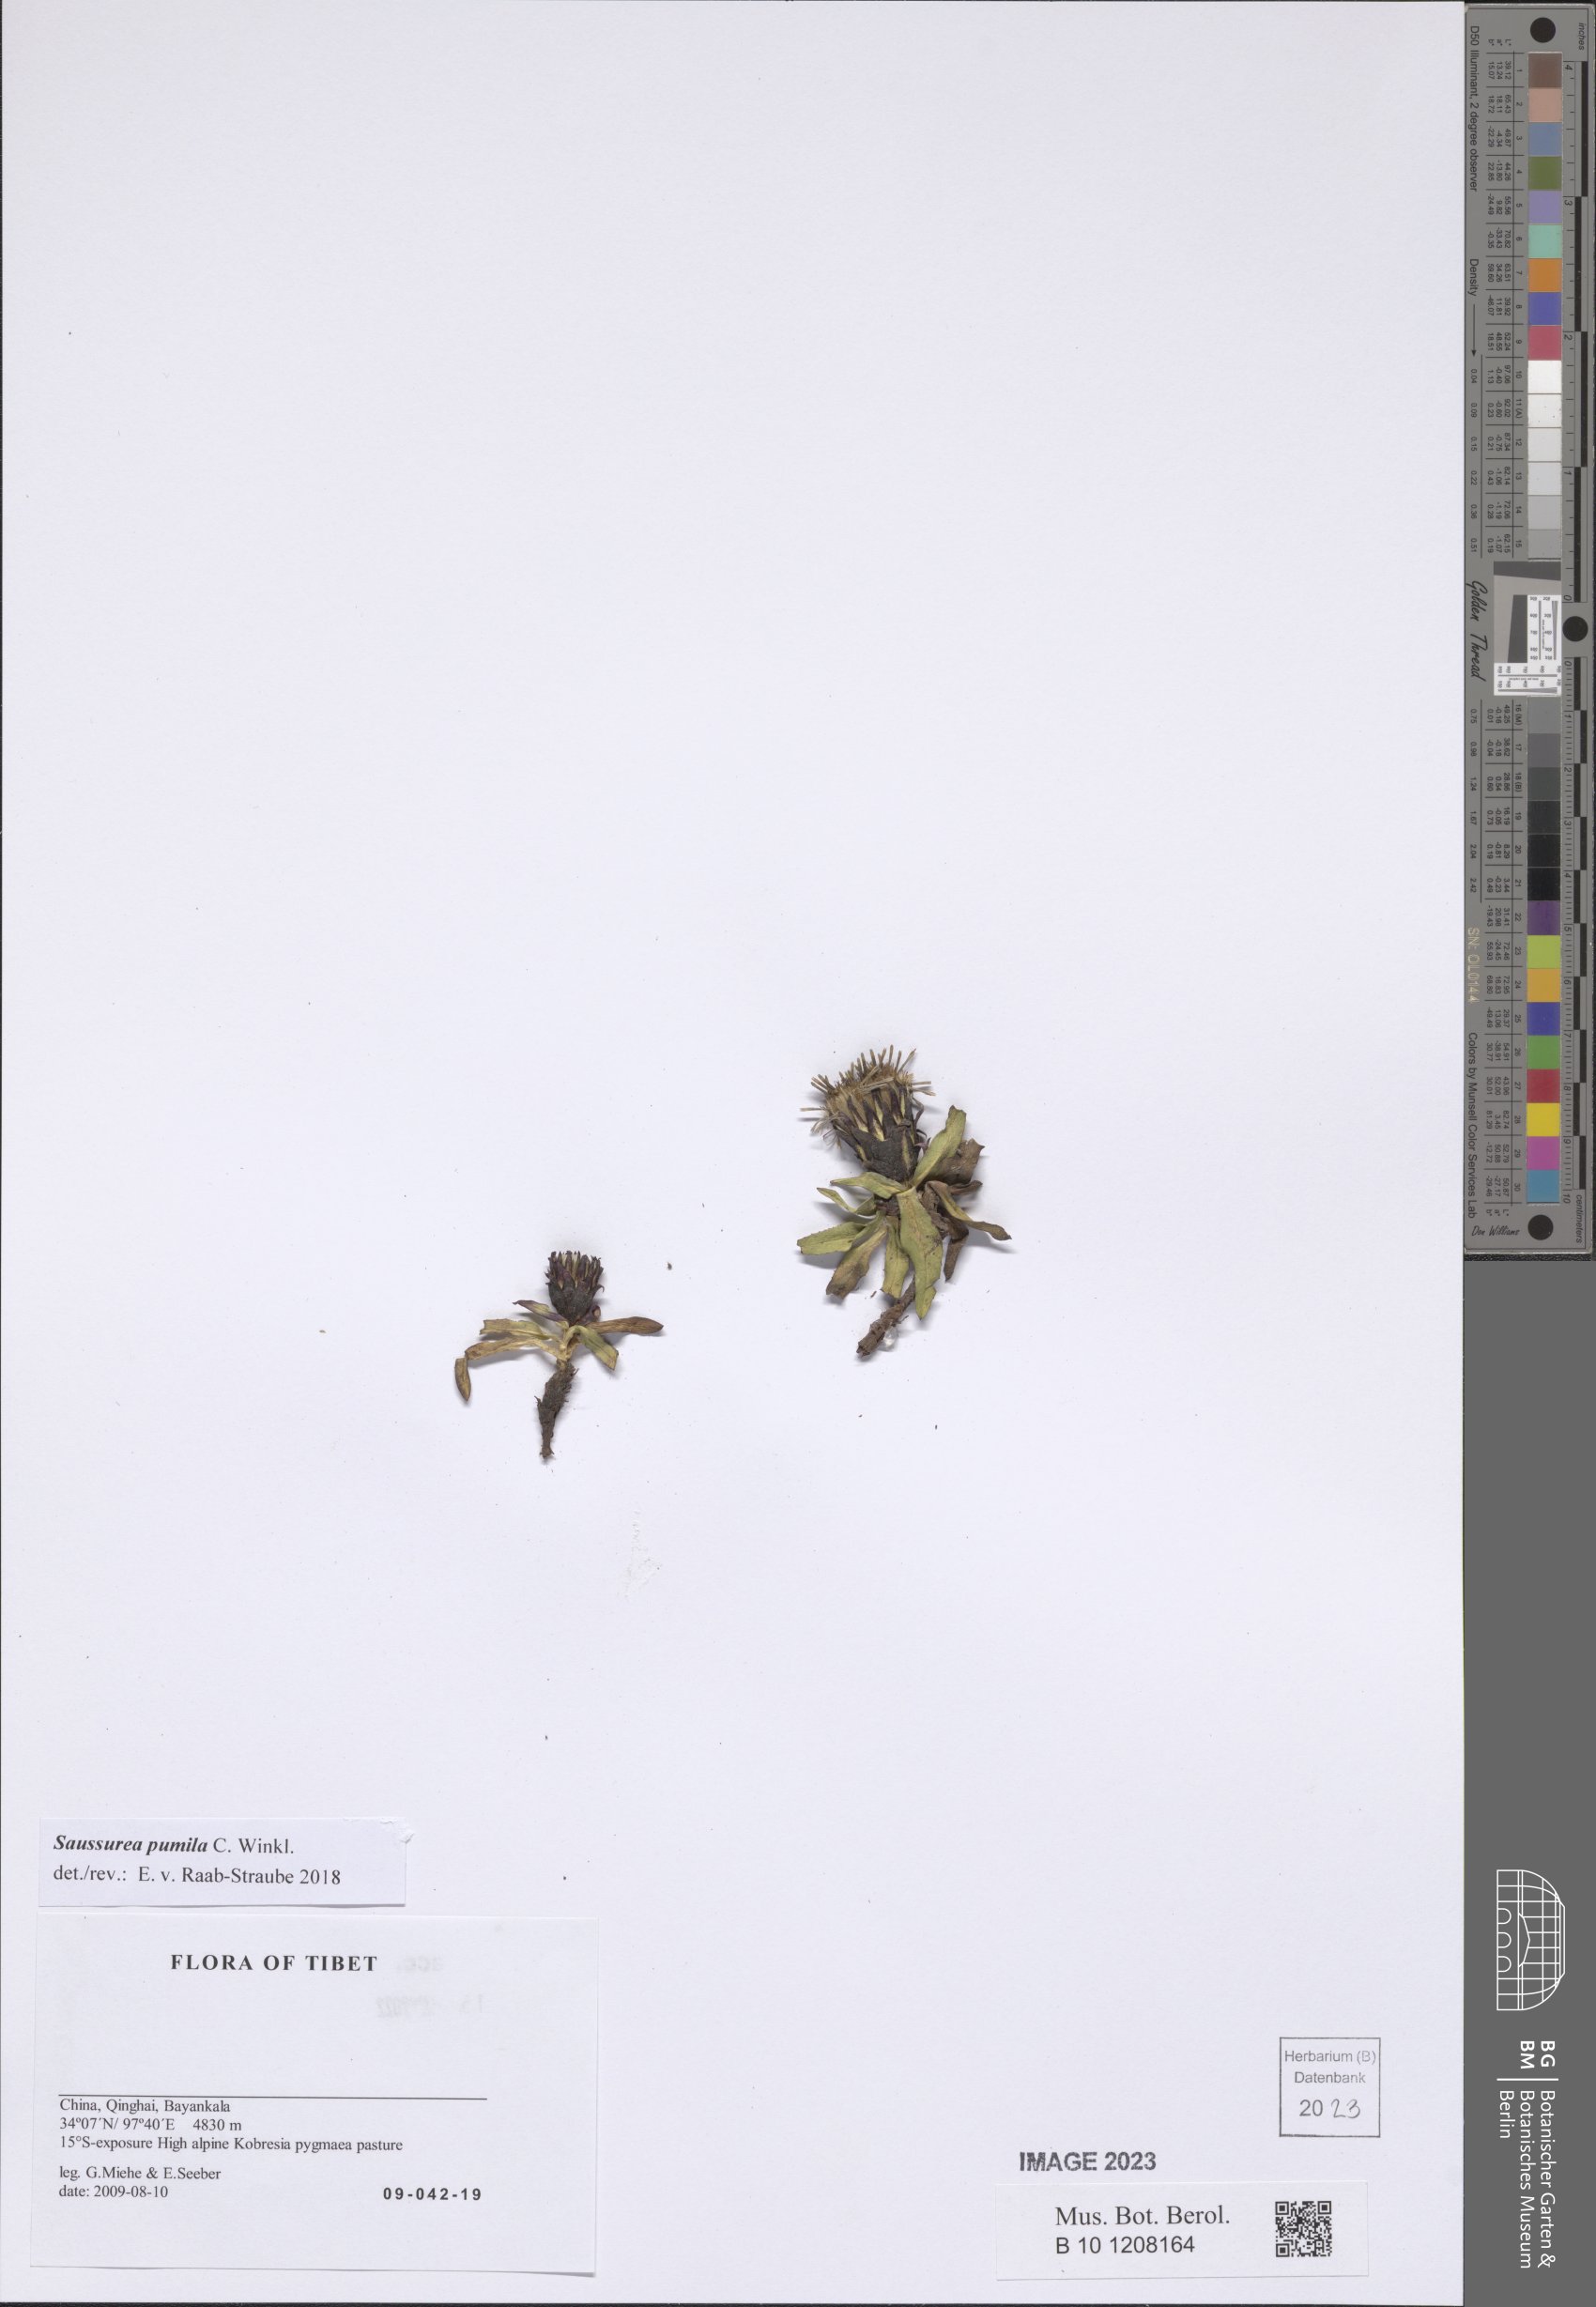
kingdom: Plantae
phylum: Tracheophyta
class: Magnoliopsida
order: Asterales
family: Asteraceae
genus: Saussurea
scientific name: Saussurea pumila
